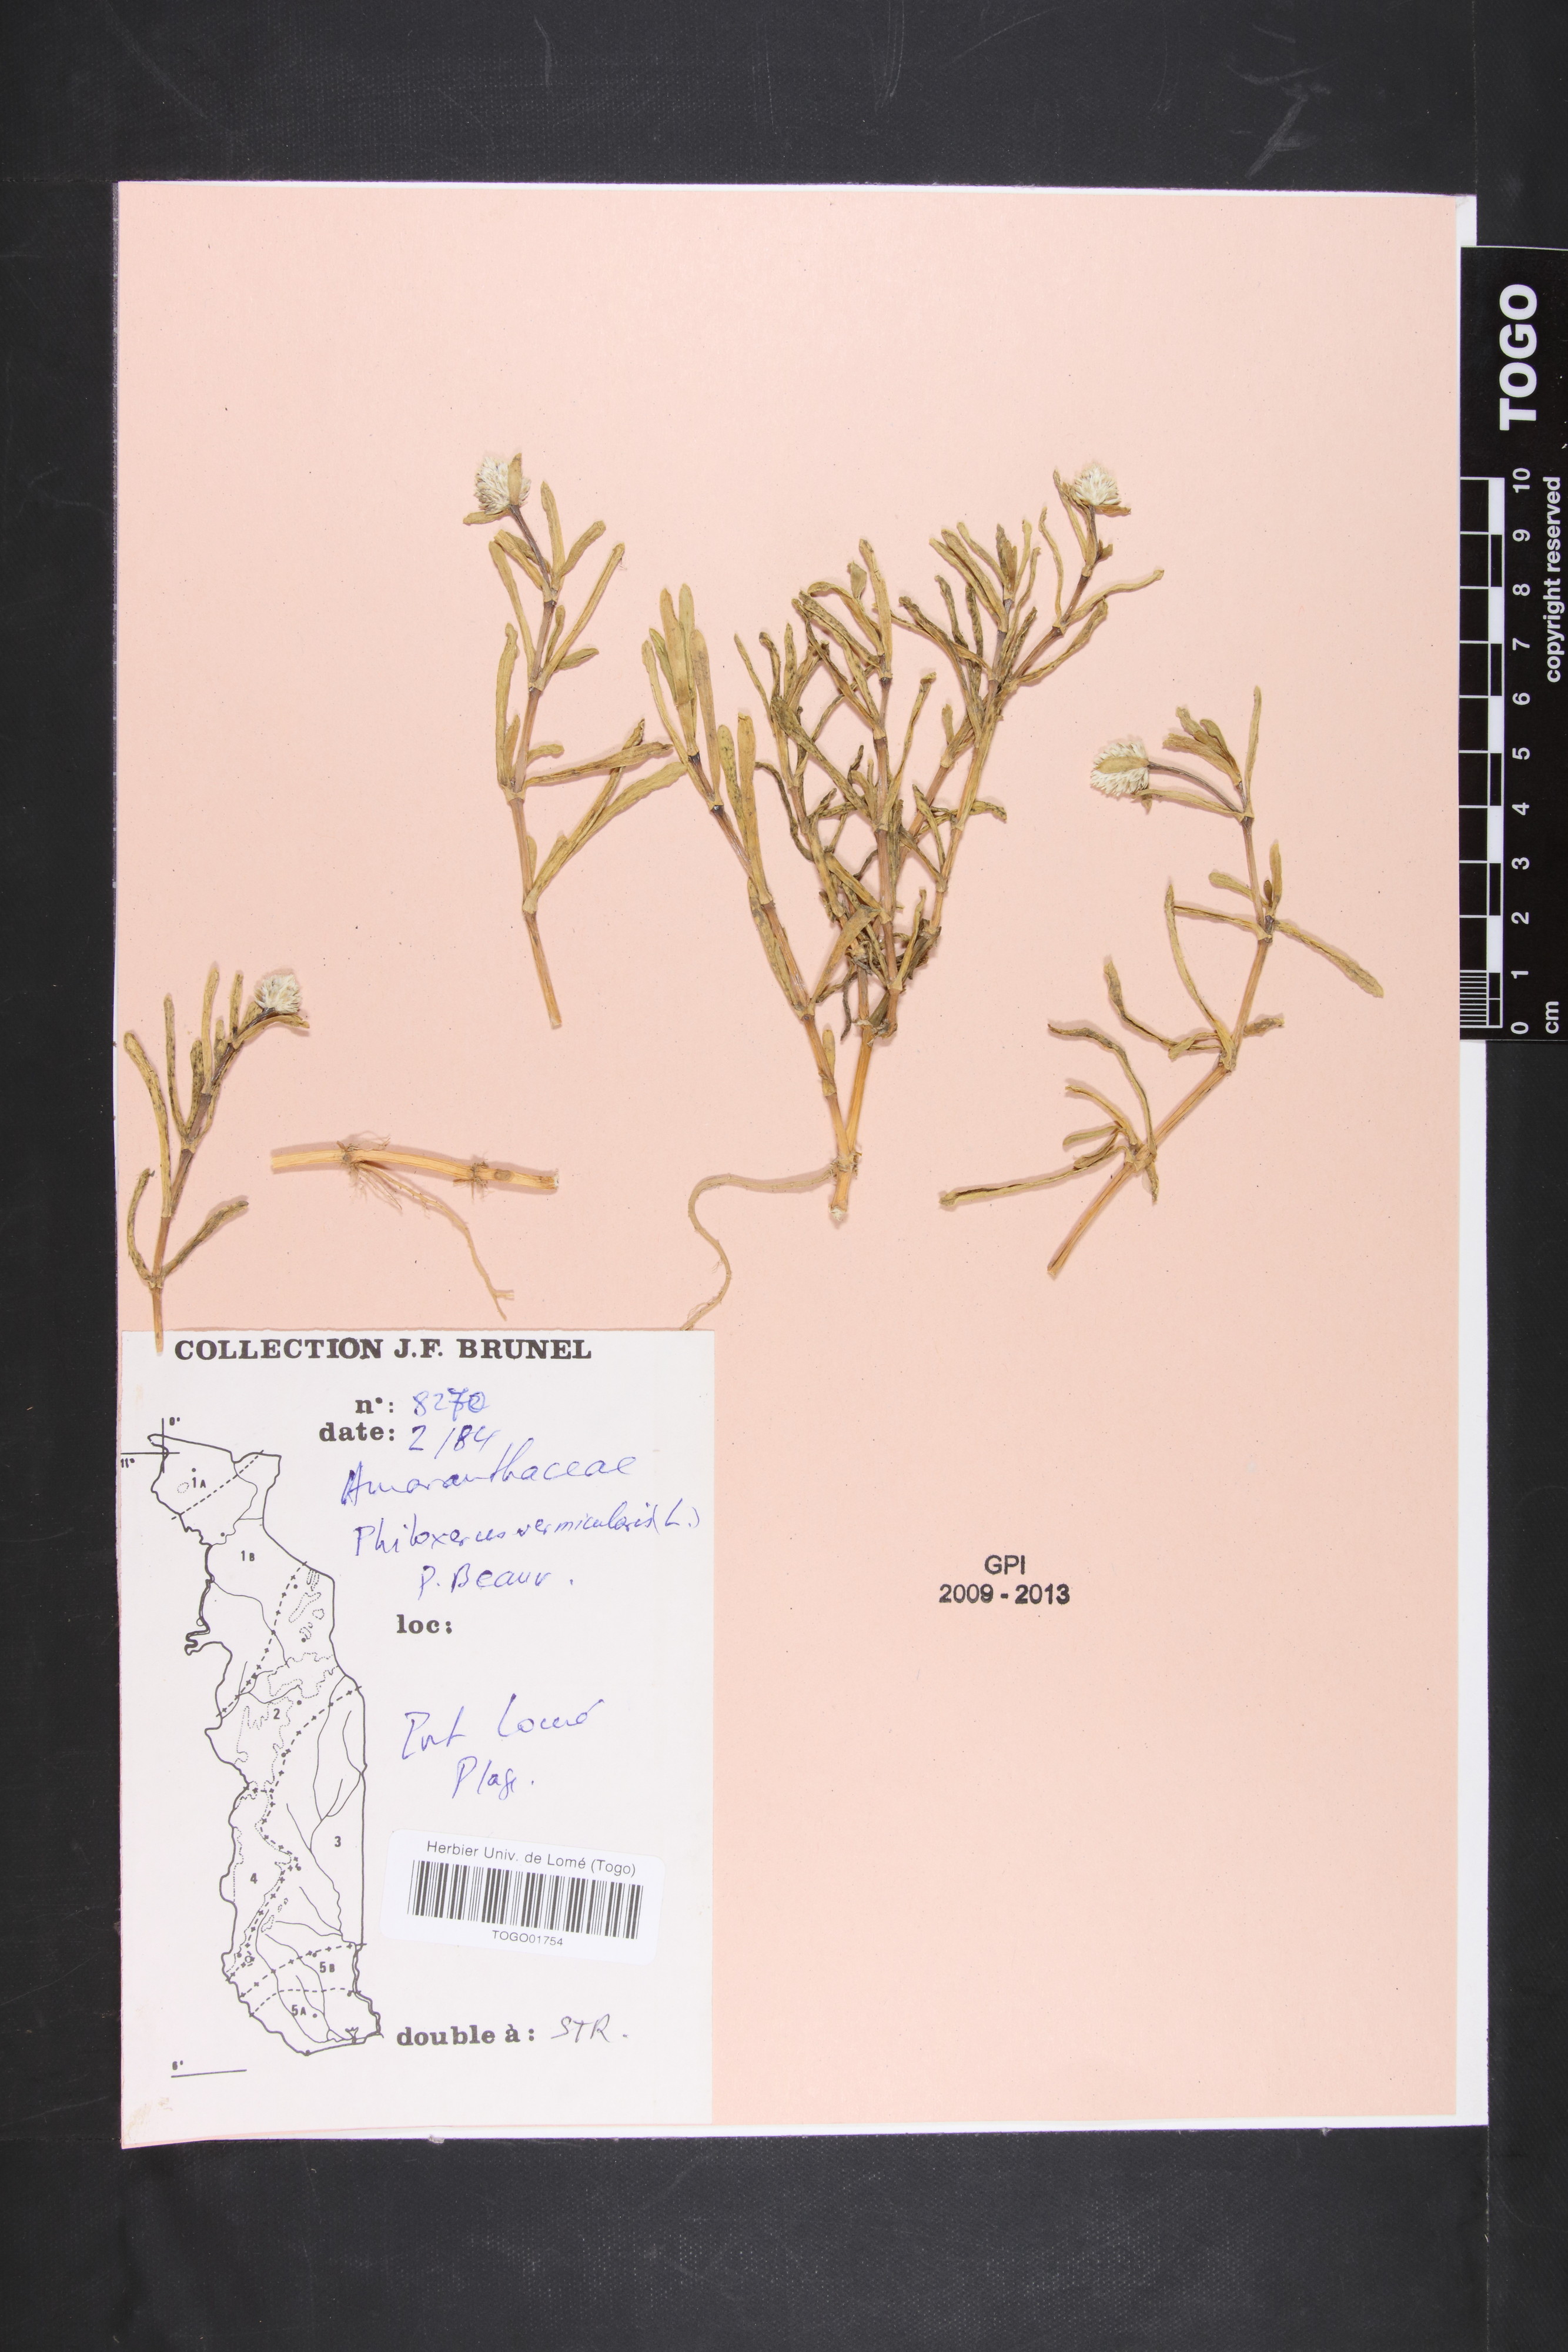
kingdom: Plantae
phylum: Tracheophyta
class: Magnoliopsida
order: Caryophyllales
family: Amaranthaceae
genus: Gomphrena
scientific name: Gomphrena vermicularis
